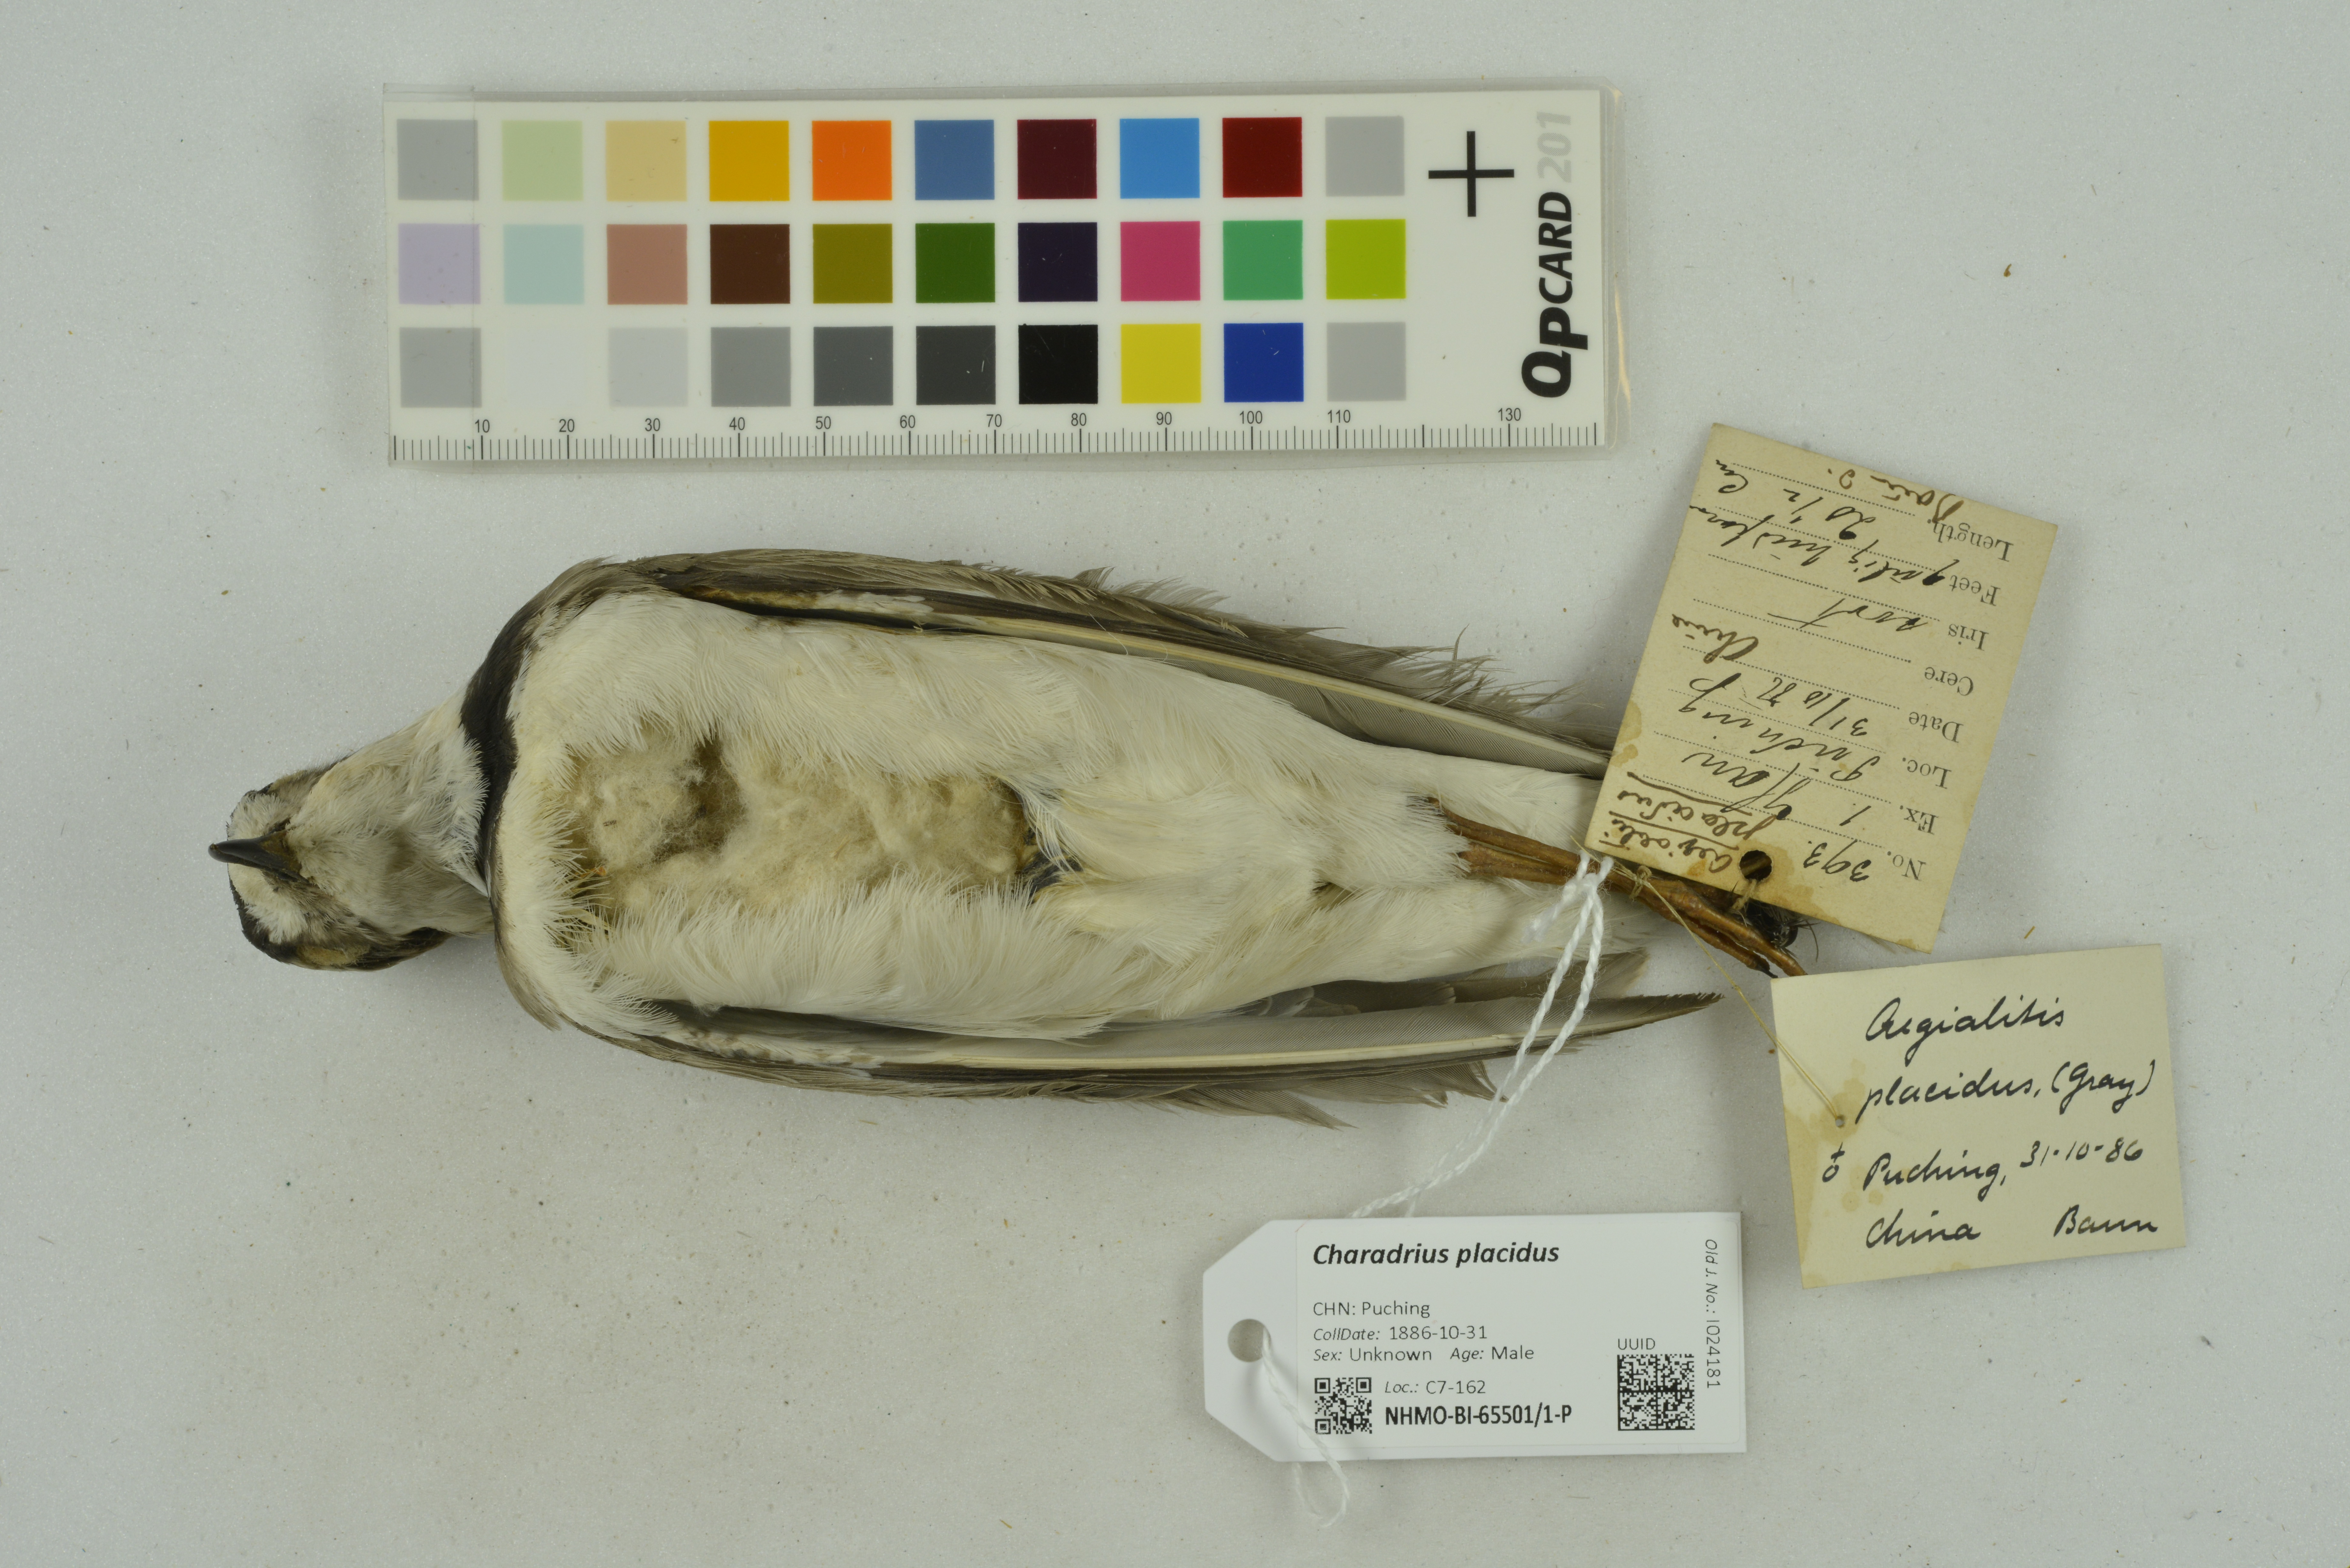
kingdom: Animalia
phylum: Chordata
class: Aves
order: Charadriiformes
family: Charadriidae
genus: Charadrius
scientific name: Charadrius placidus
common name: Long-billed plover
